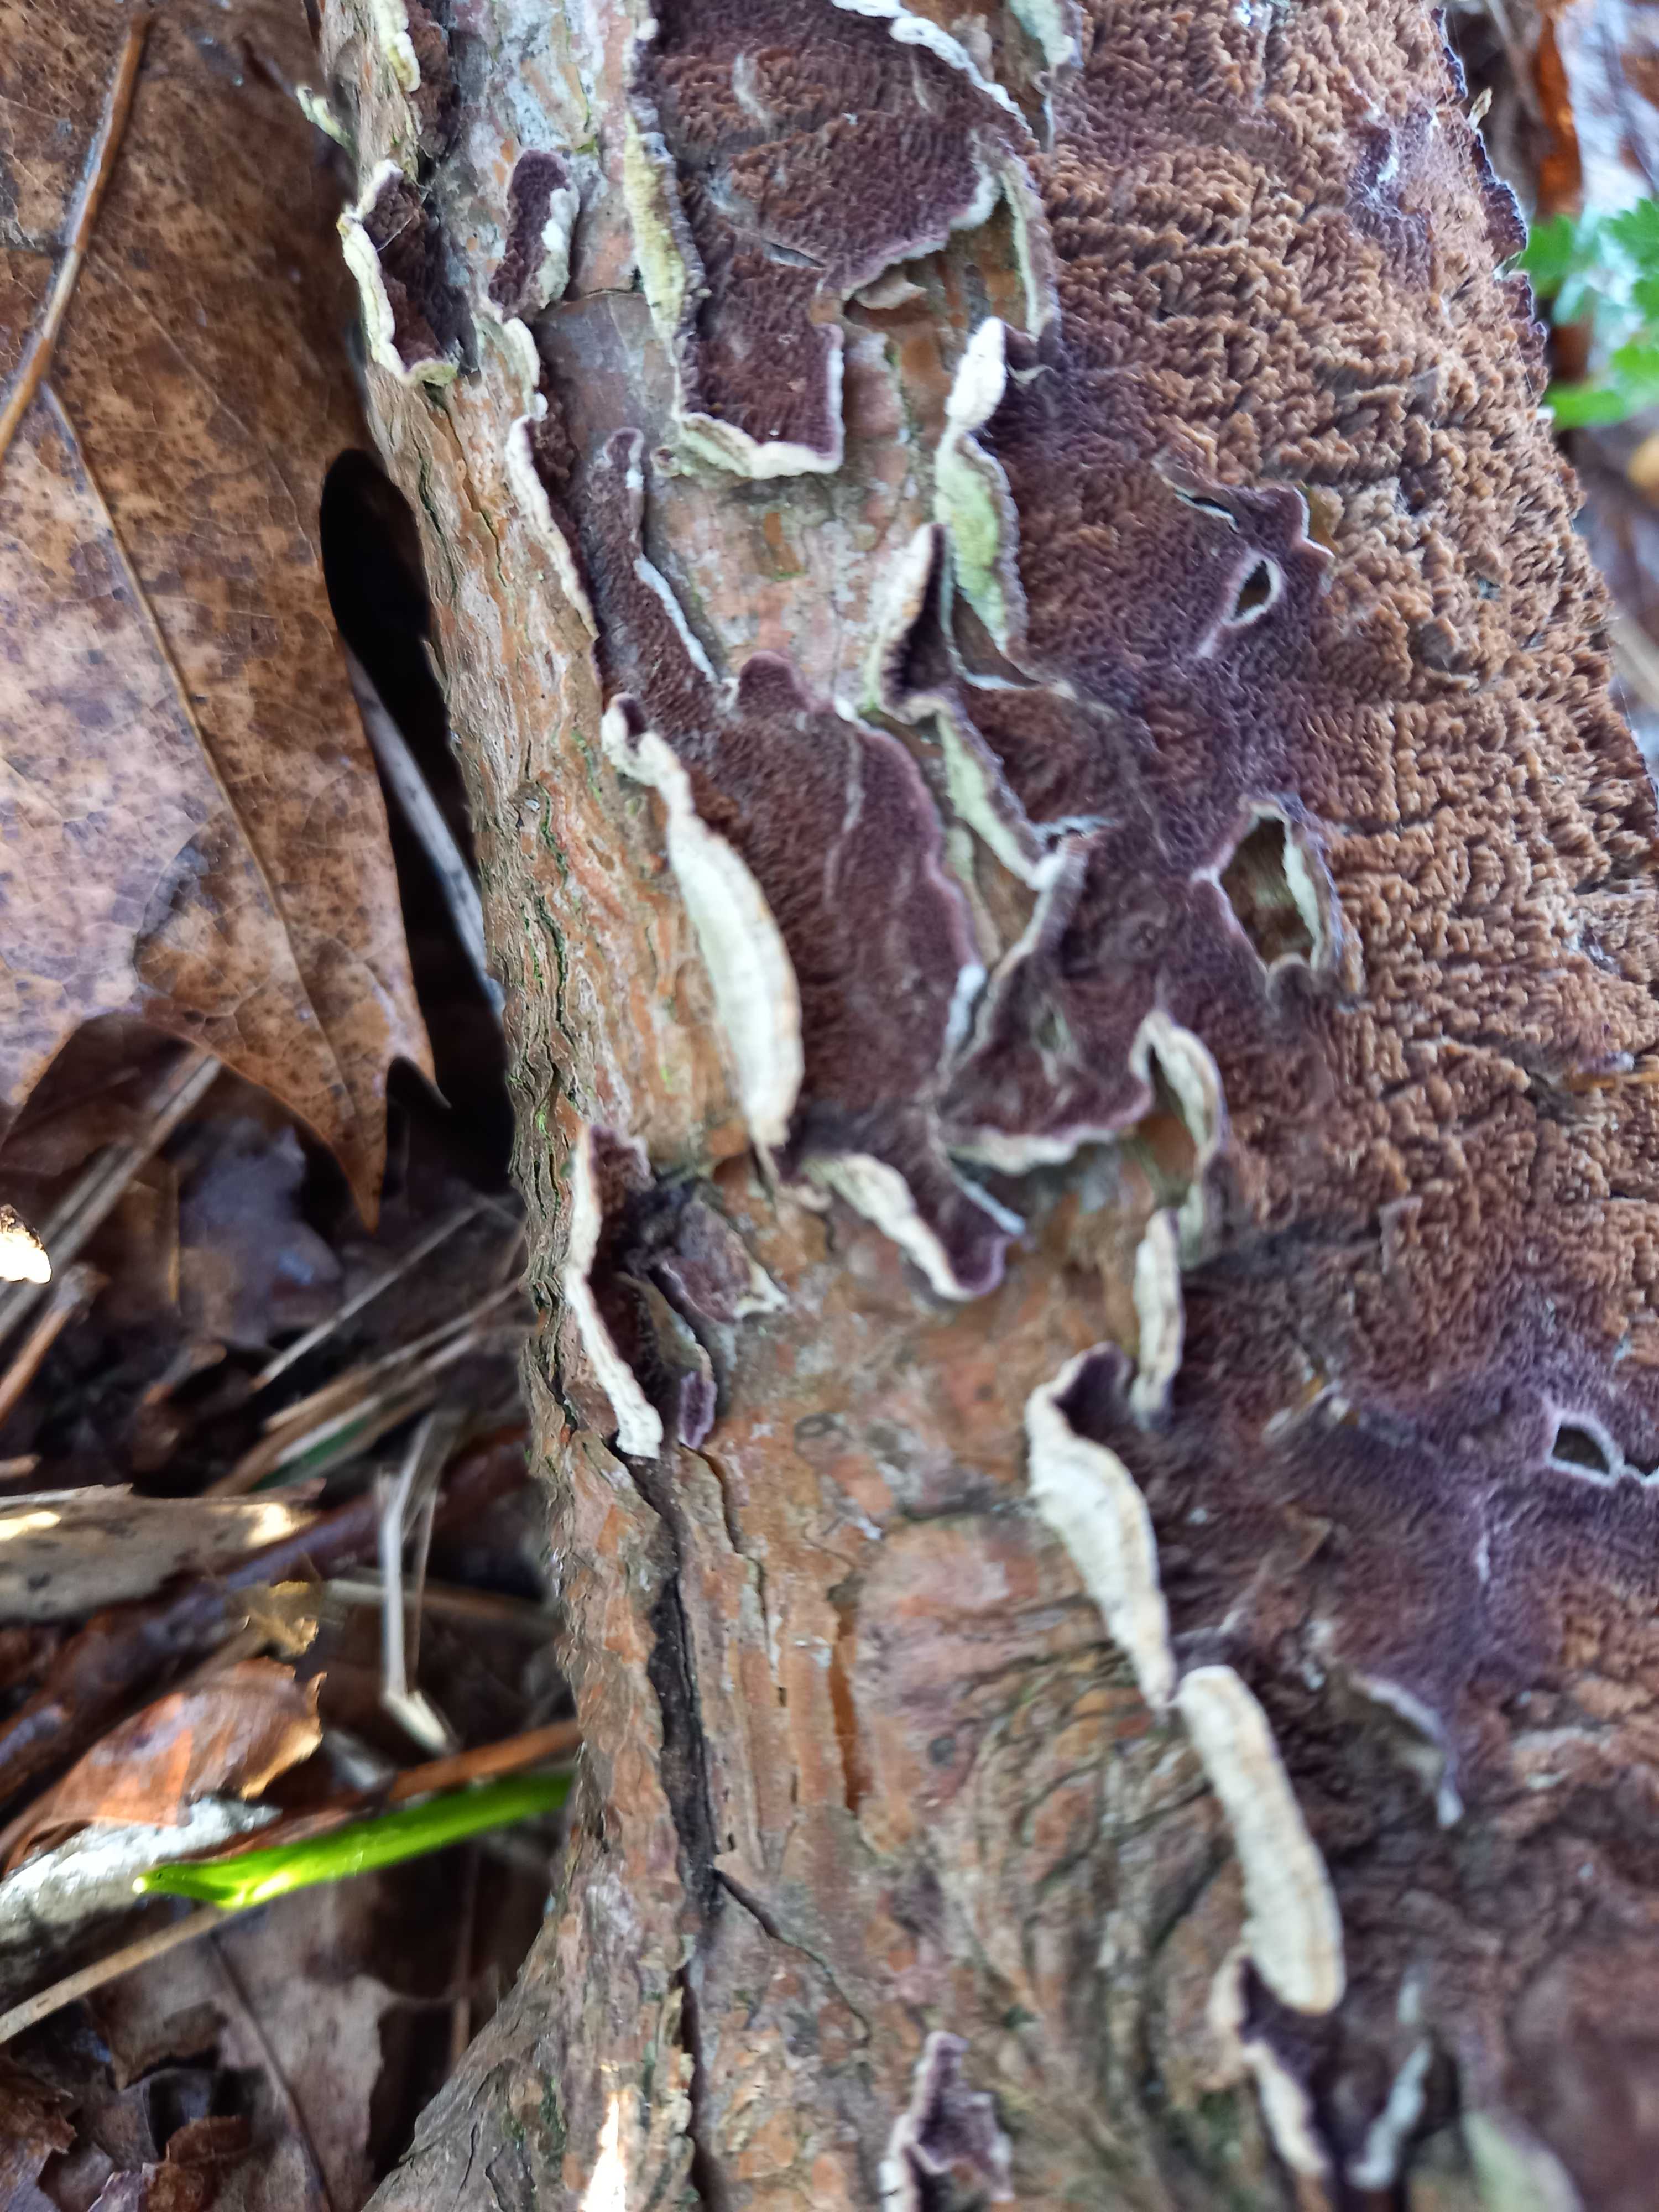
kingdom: Fungi
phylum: Basidiomycota
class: Agaricomycetes
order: Hymenochaetales
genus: Trichaptum
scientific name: Trichaptum fuscoviolaceum
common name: tandet violporesvamp
